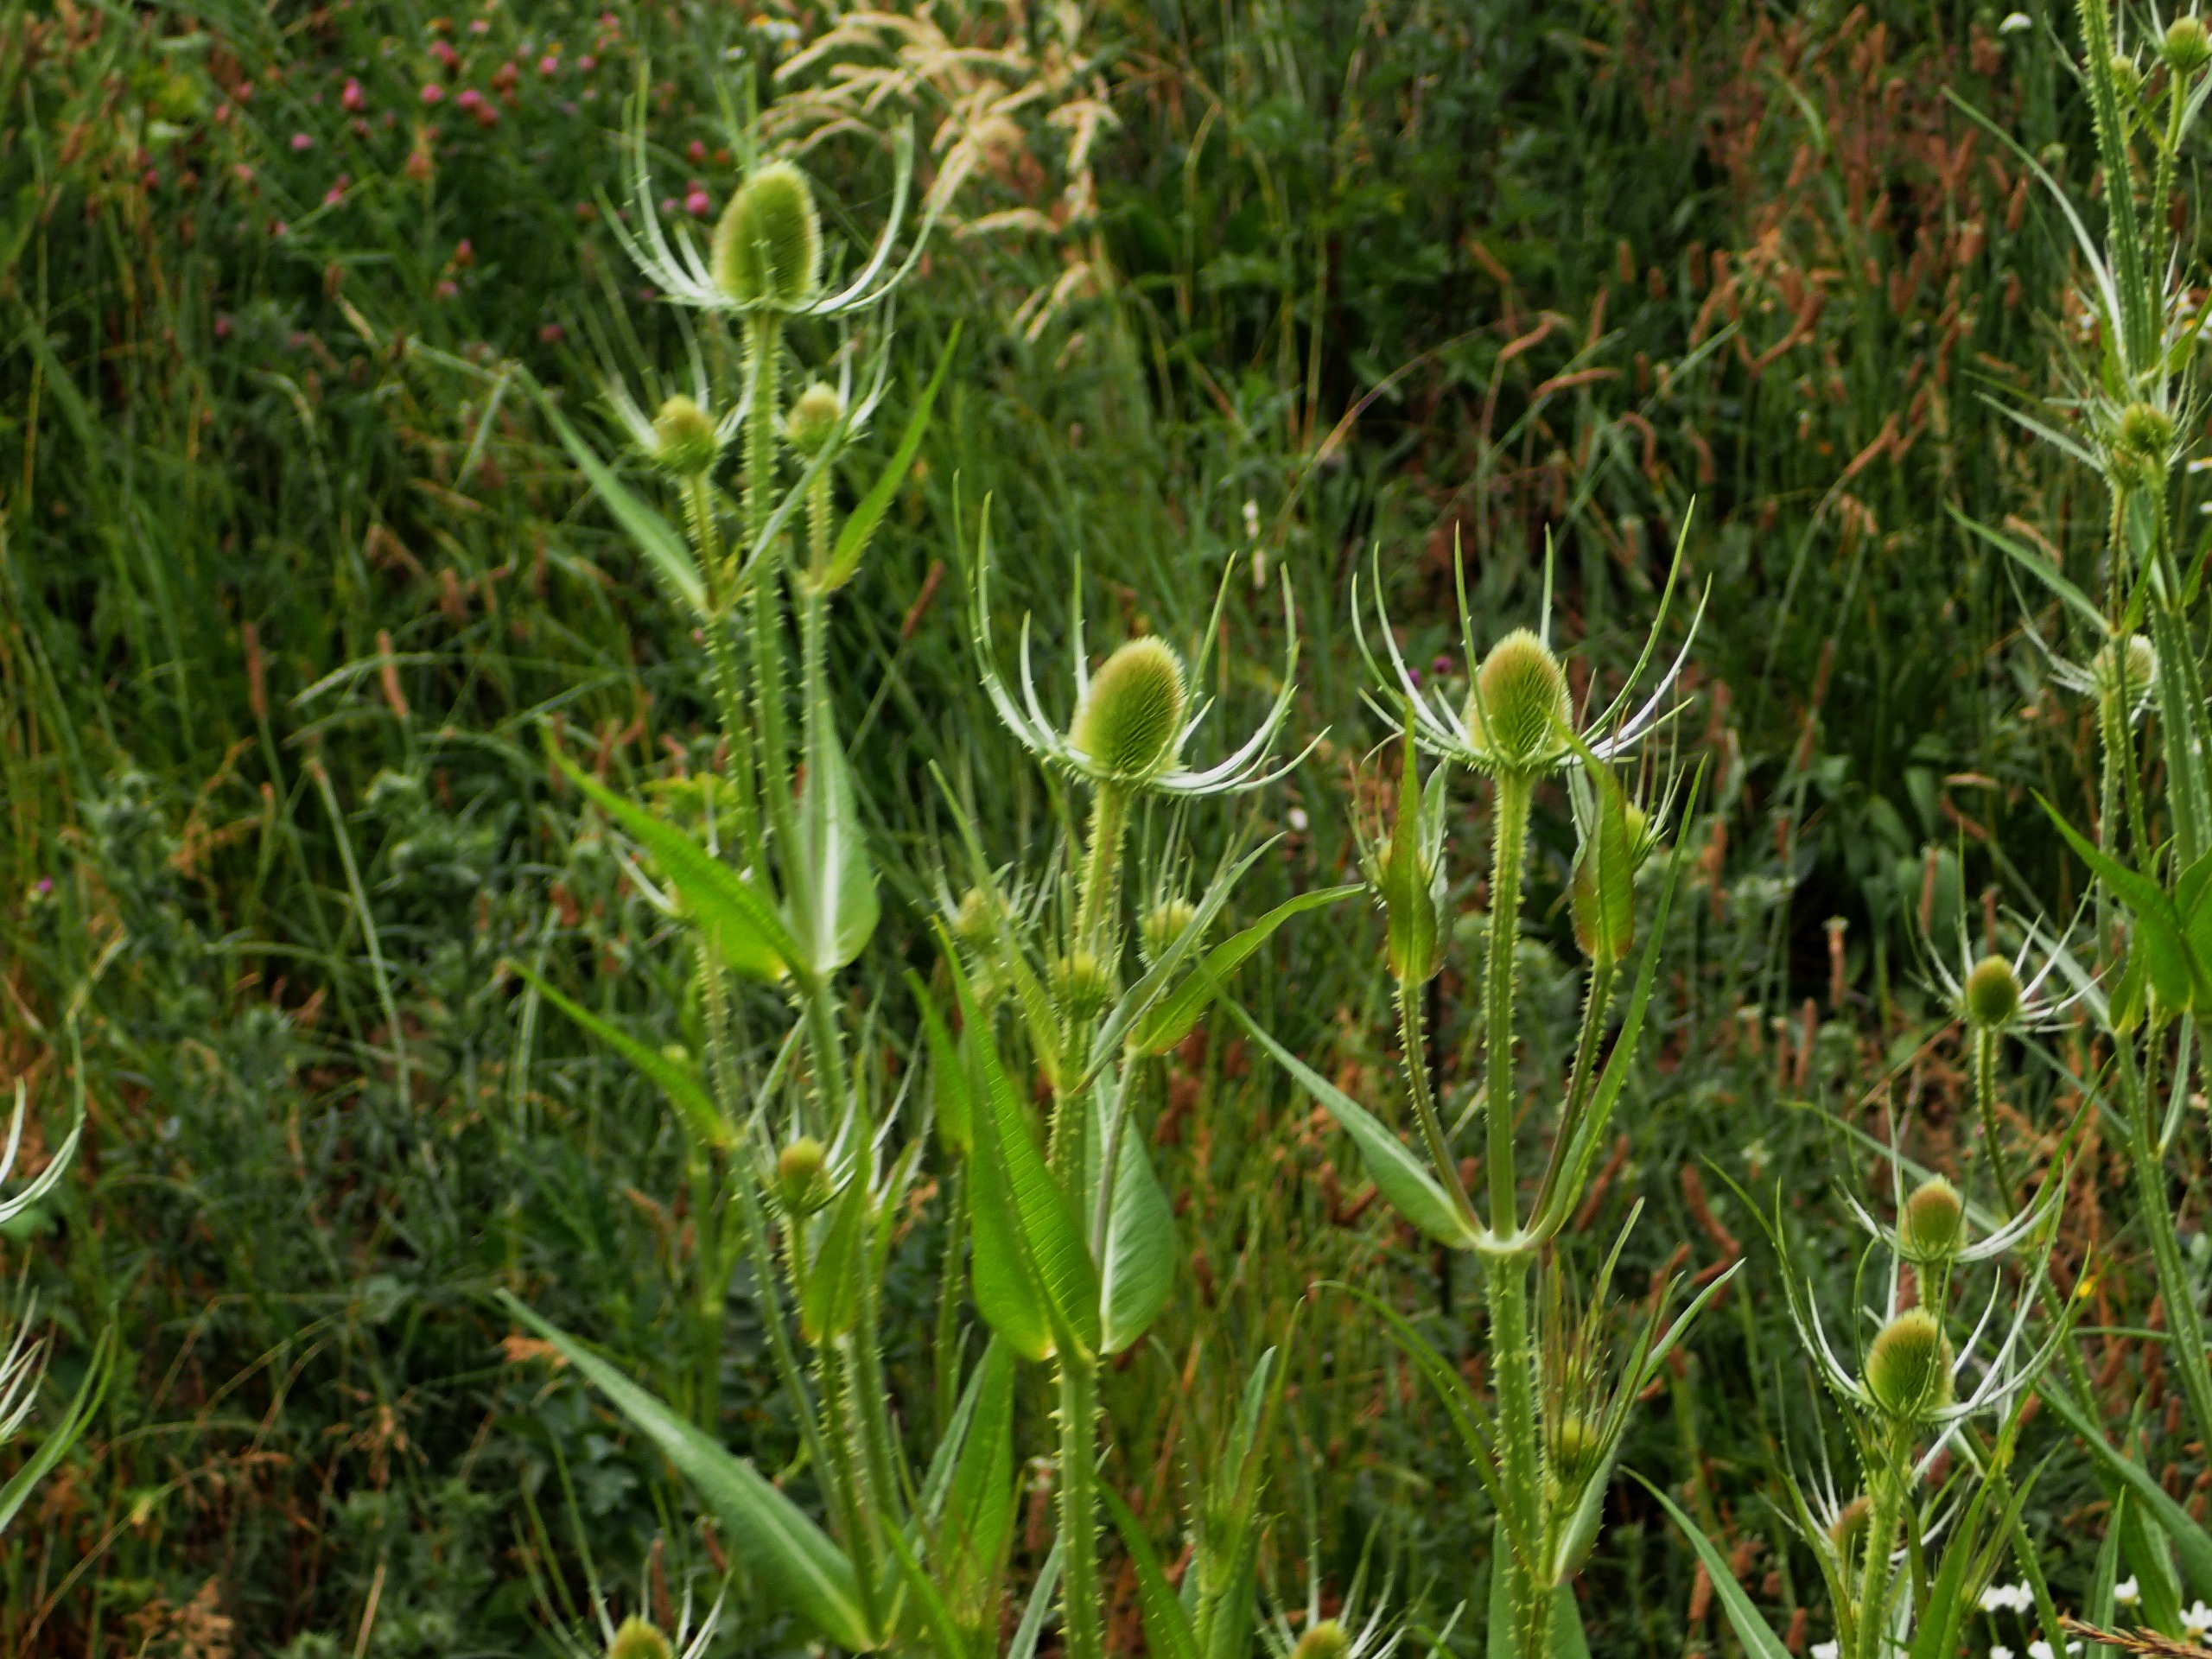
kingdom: Plantae
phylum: Tracheophyta
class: Magnoliopsida
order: Dipsacales
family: Caprifoliaceae
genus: Dipsacus
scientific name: Dipsacus fullonum
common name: Gærde-kartebolle
